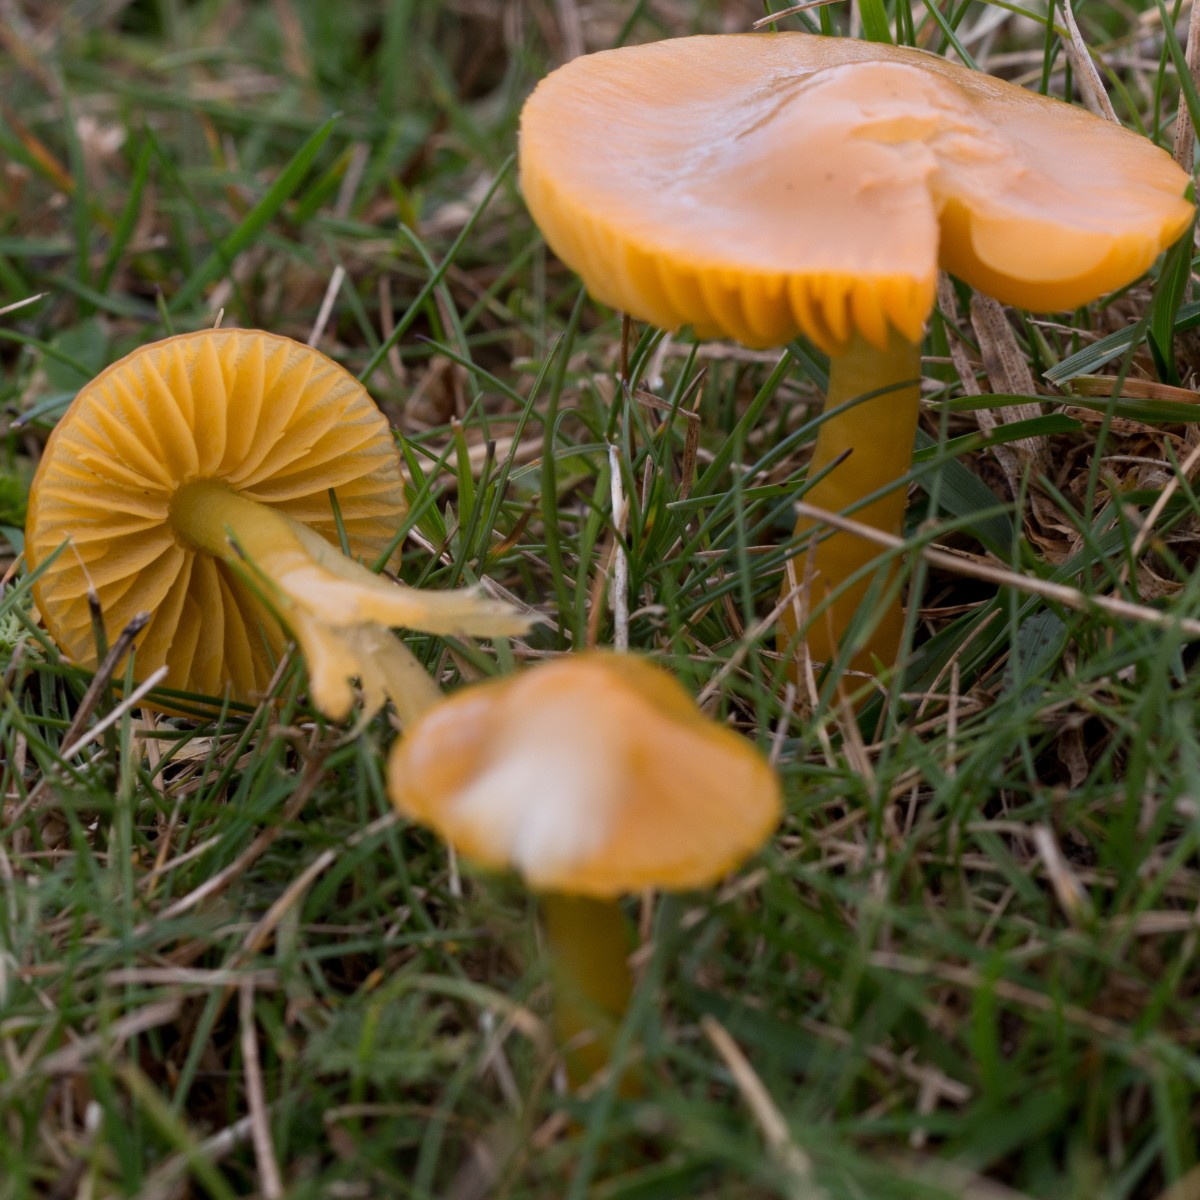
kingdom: Fungi
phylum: Basidiomycota
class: Agaricomycetes
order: Agaricales
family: Hygrophoraceae
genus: Gliophorus
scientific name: Gliophorus psittacinus
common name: papegøje-vokshat
